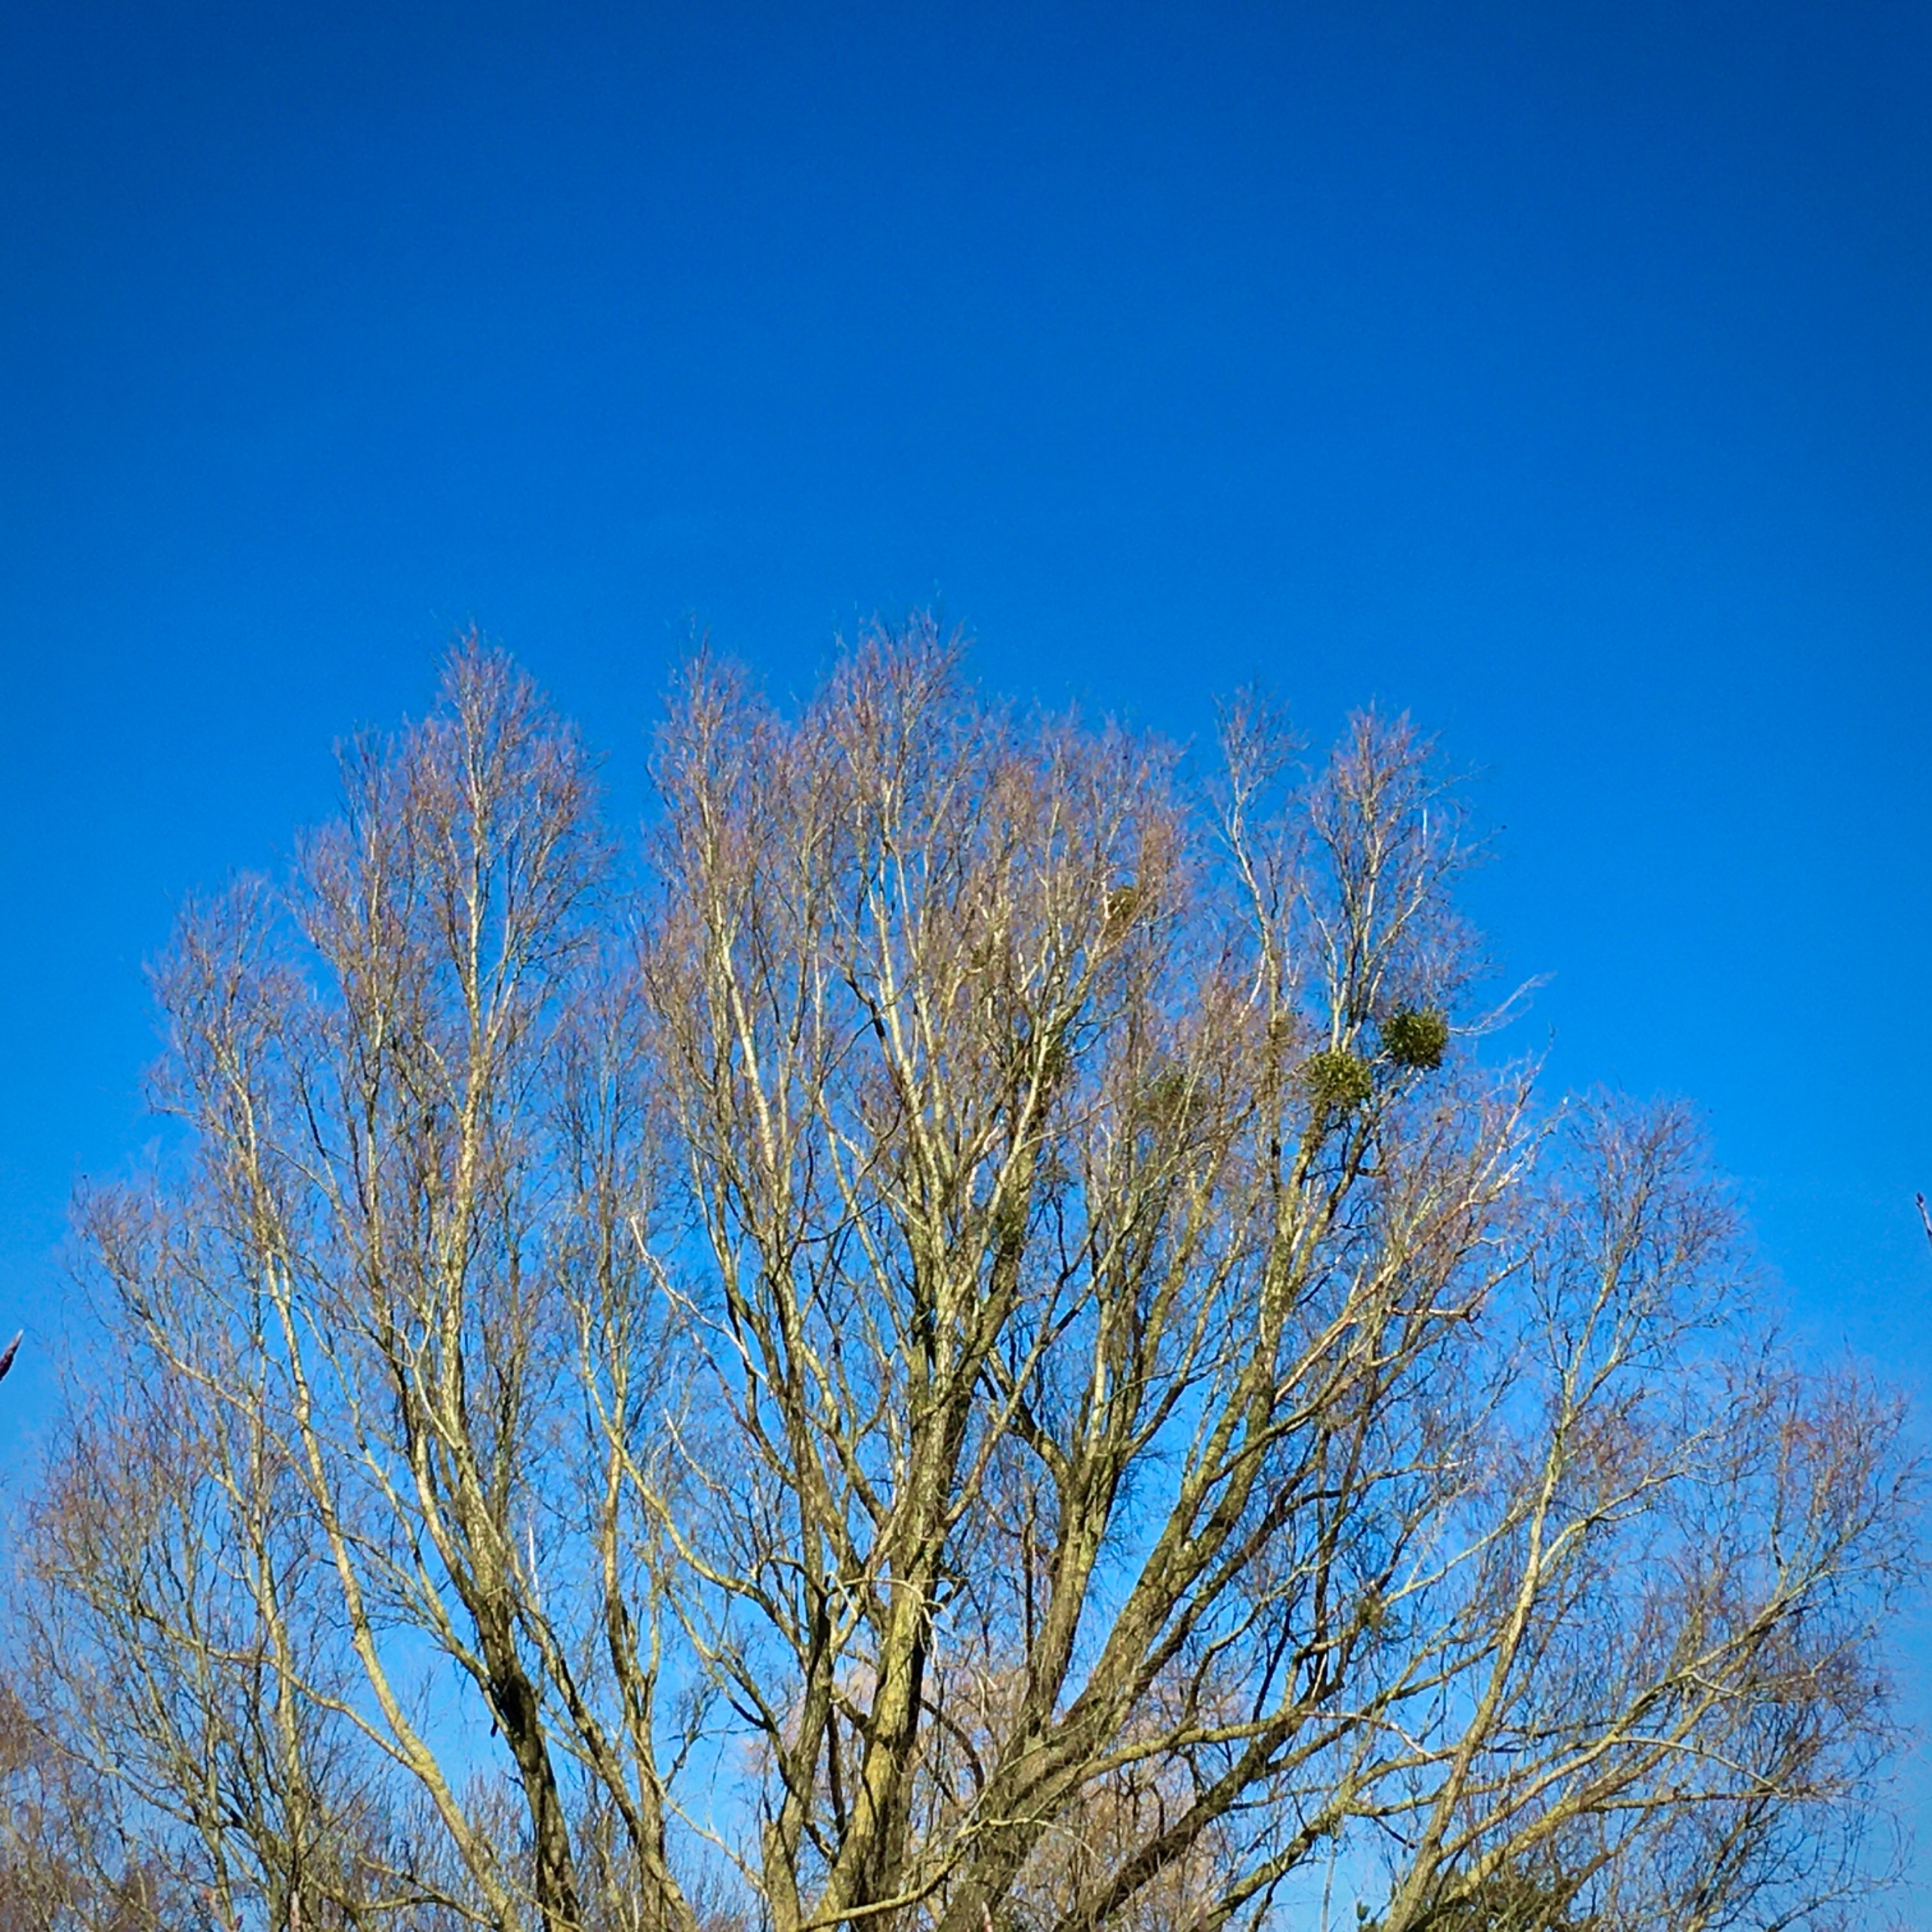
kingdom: Plantae
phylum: Tracheophyta
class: Magnoliopsida
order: Santalales
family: Viscaceae
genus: Viscum
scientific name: Viscum album
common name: Mistelten
